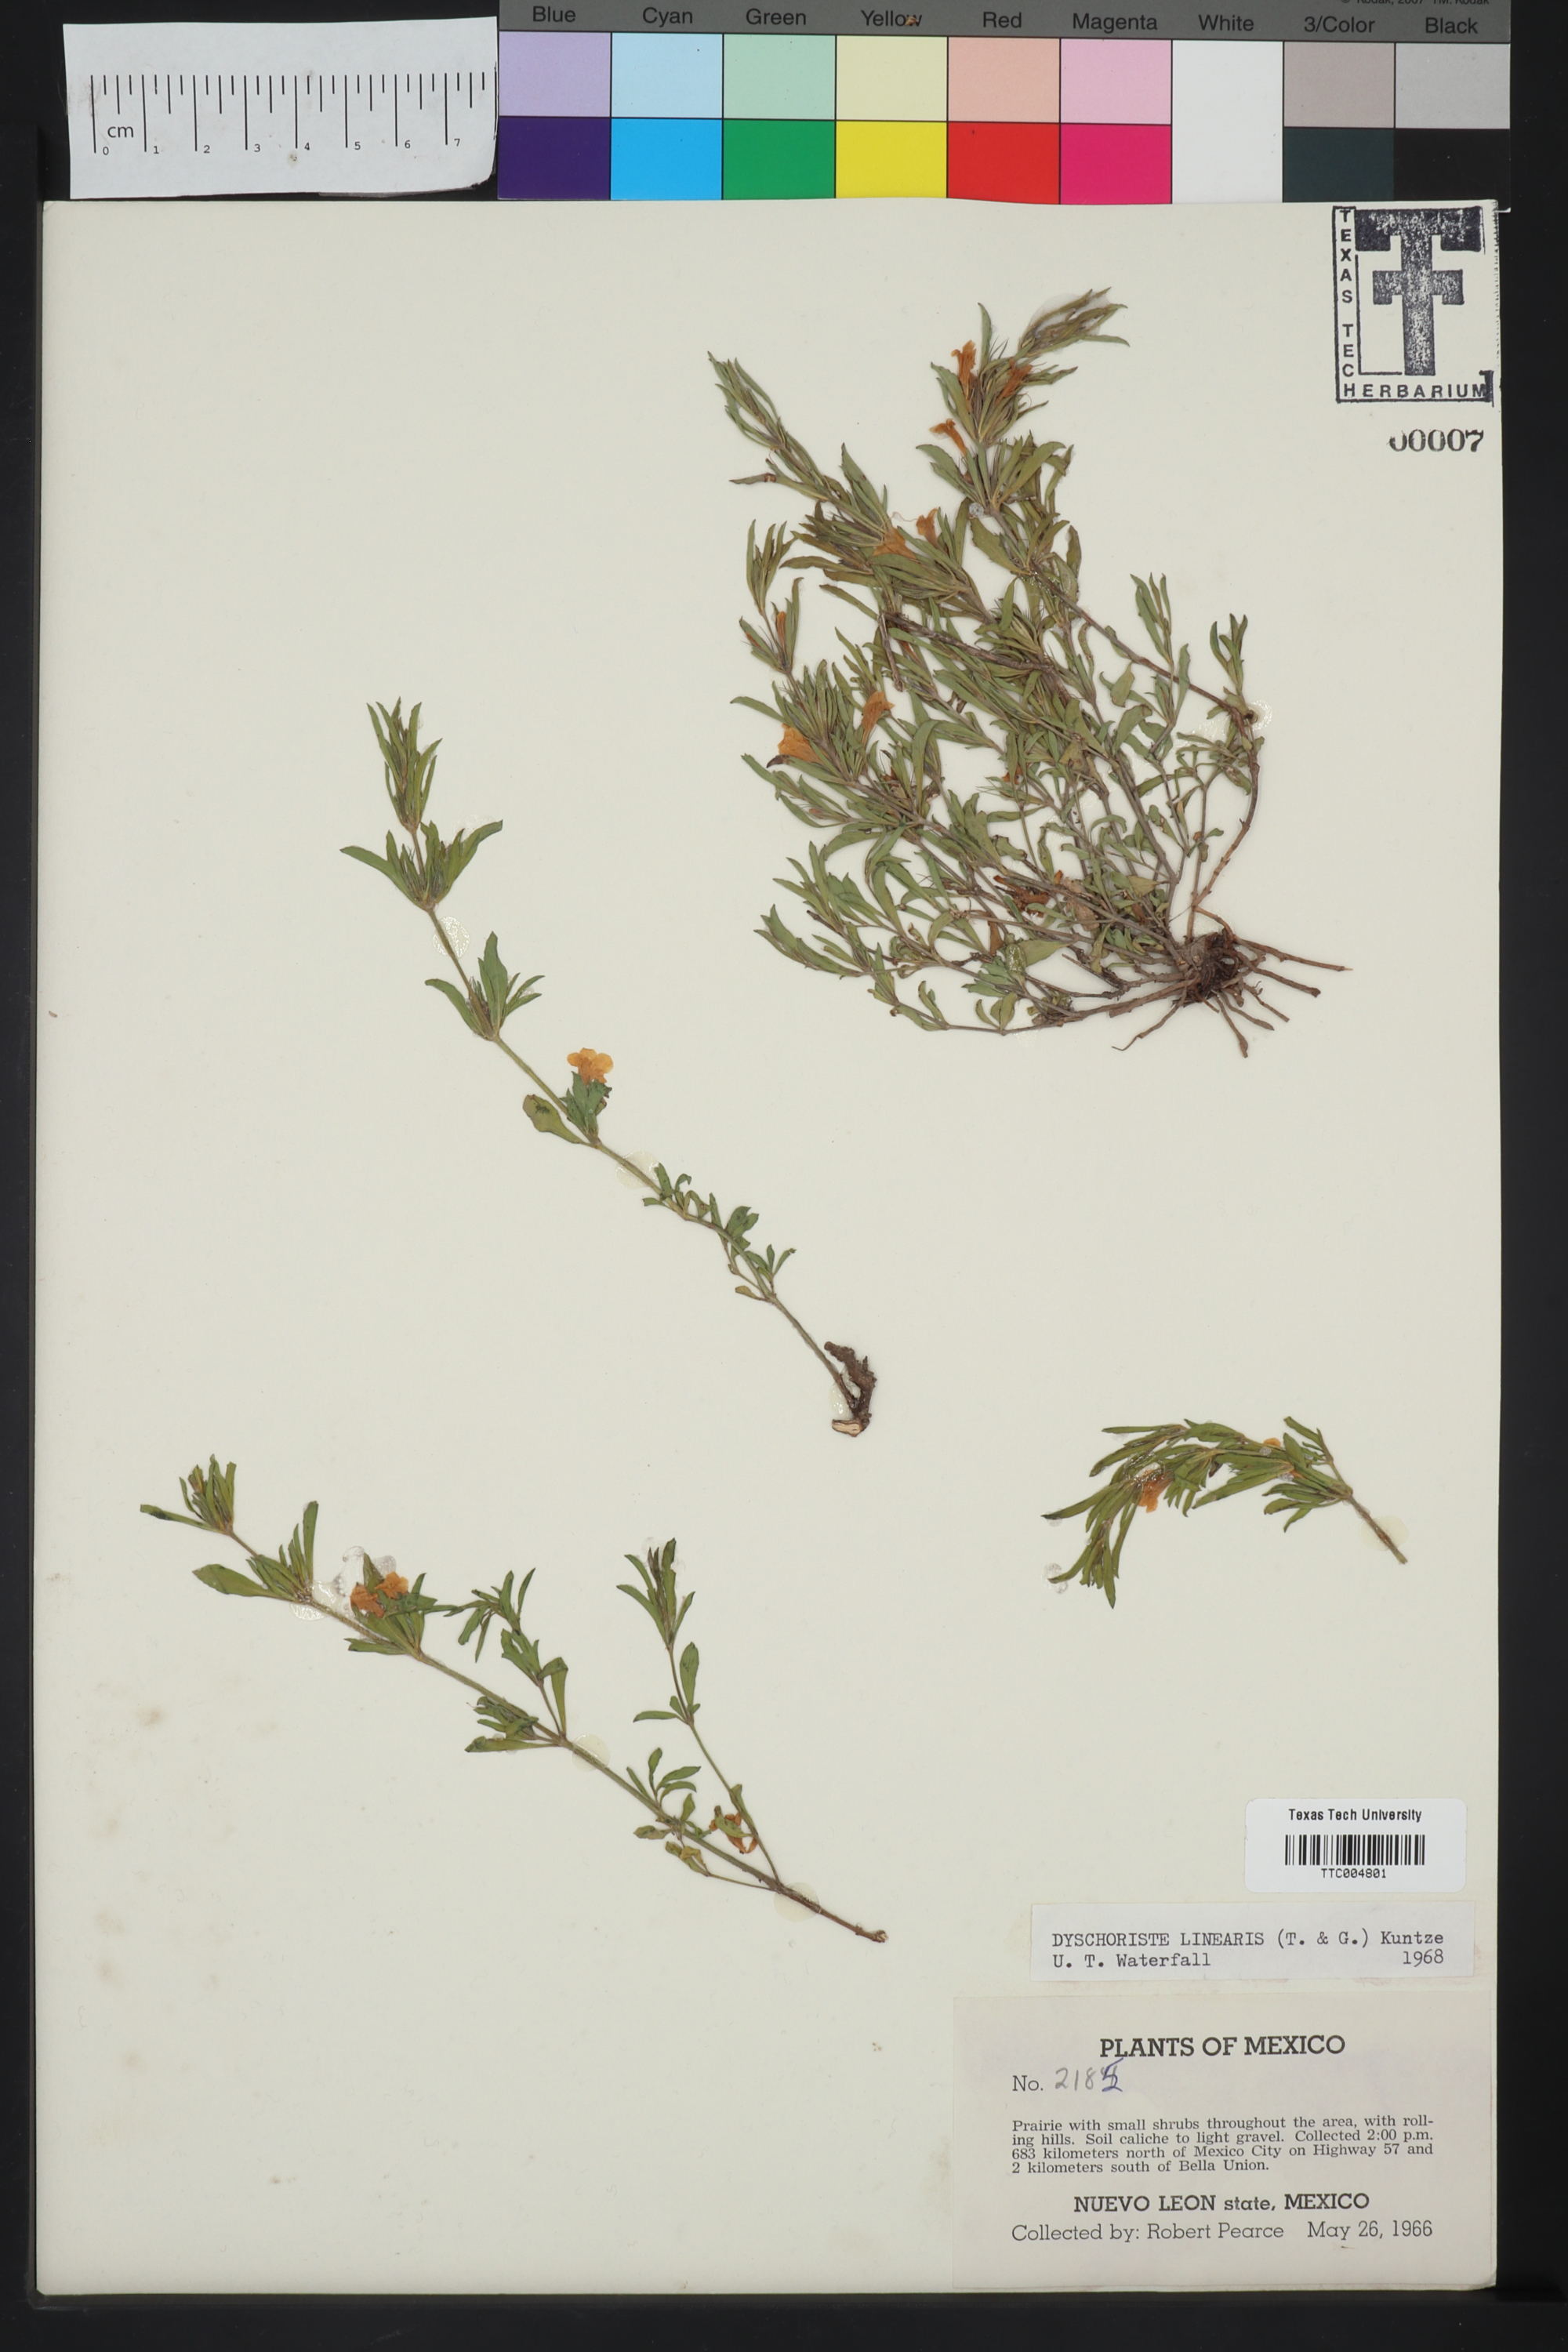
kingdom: Plantae
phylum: Tracheophyta
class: Magnoliopsida
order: Lamiales
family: Acanthaceae
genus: Dyschoriste
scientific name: Dyschoriste linearis
